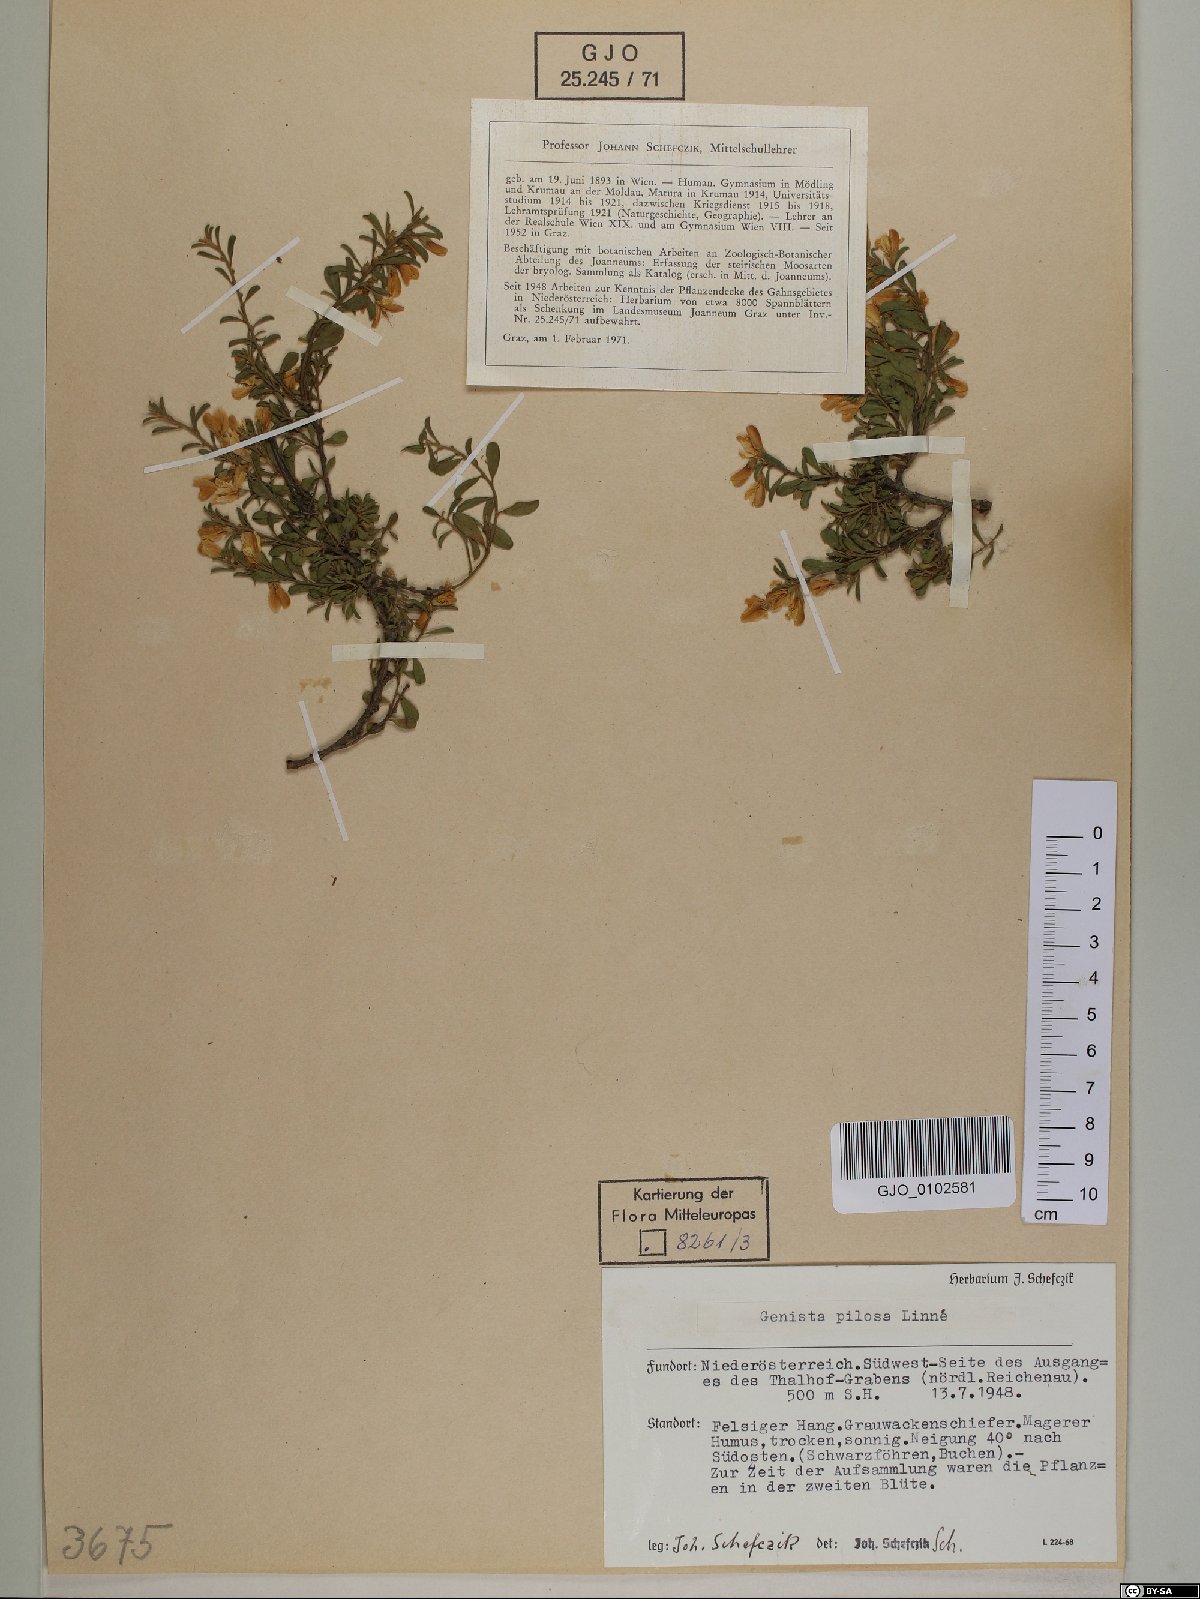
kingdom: Plantae
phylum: Tracheophyta
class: Magnoliopsida
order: Fabales
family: Fabaceae
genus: Genista
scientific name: Genista pilosa
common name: Hairy greenweed
